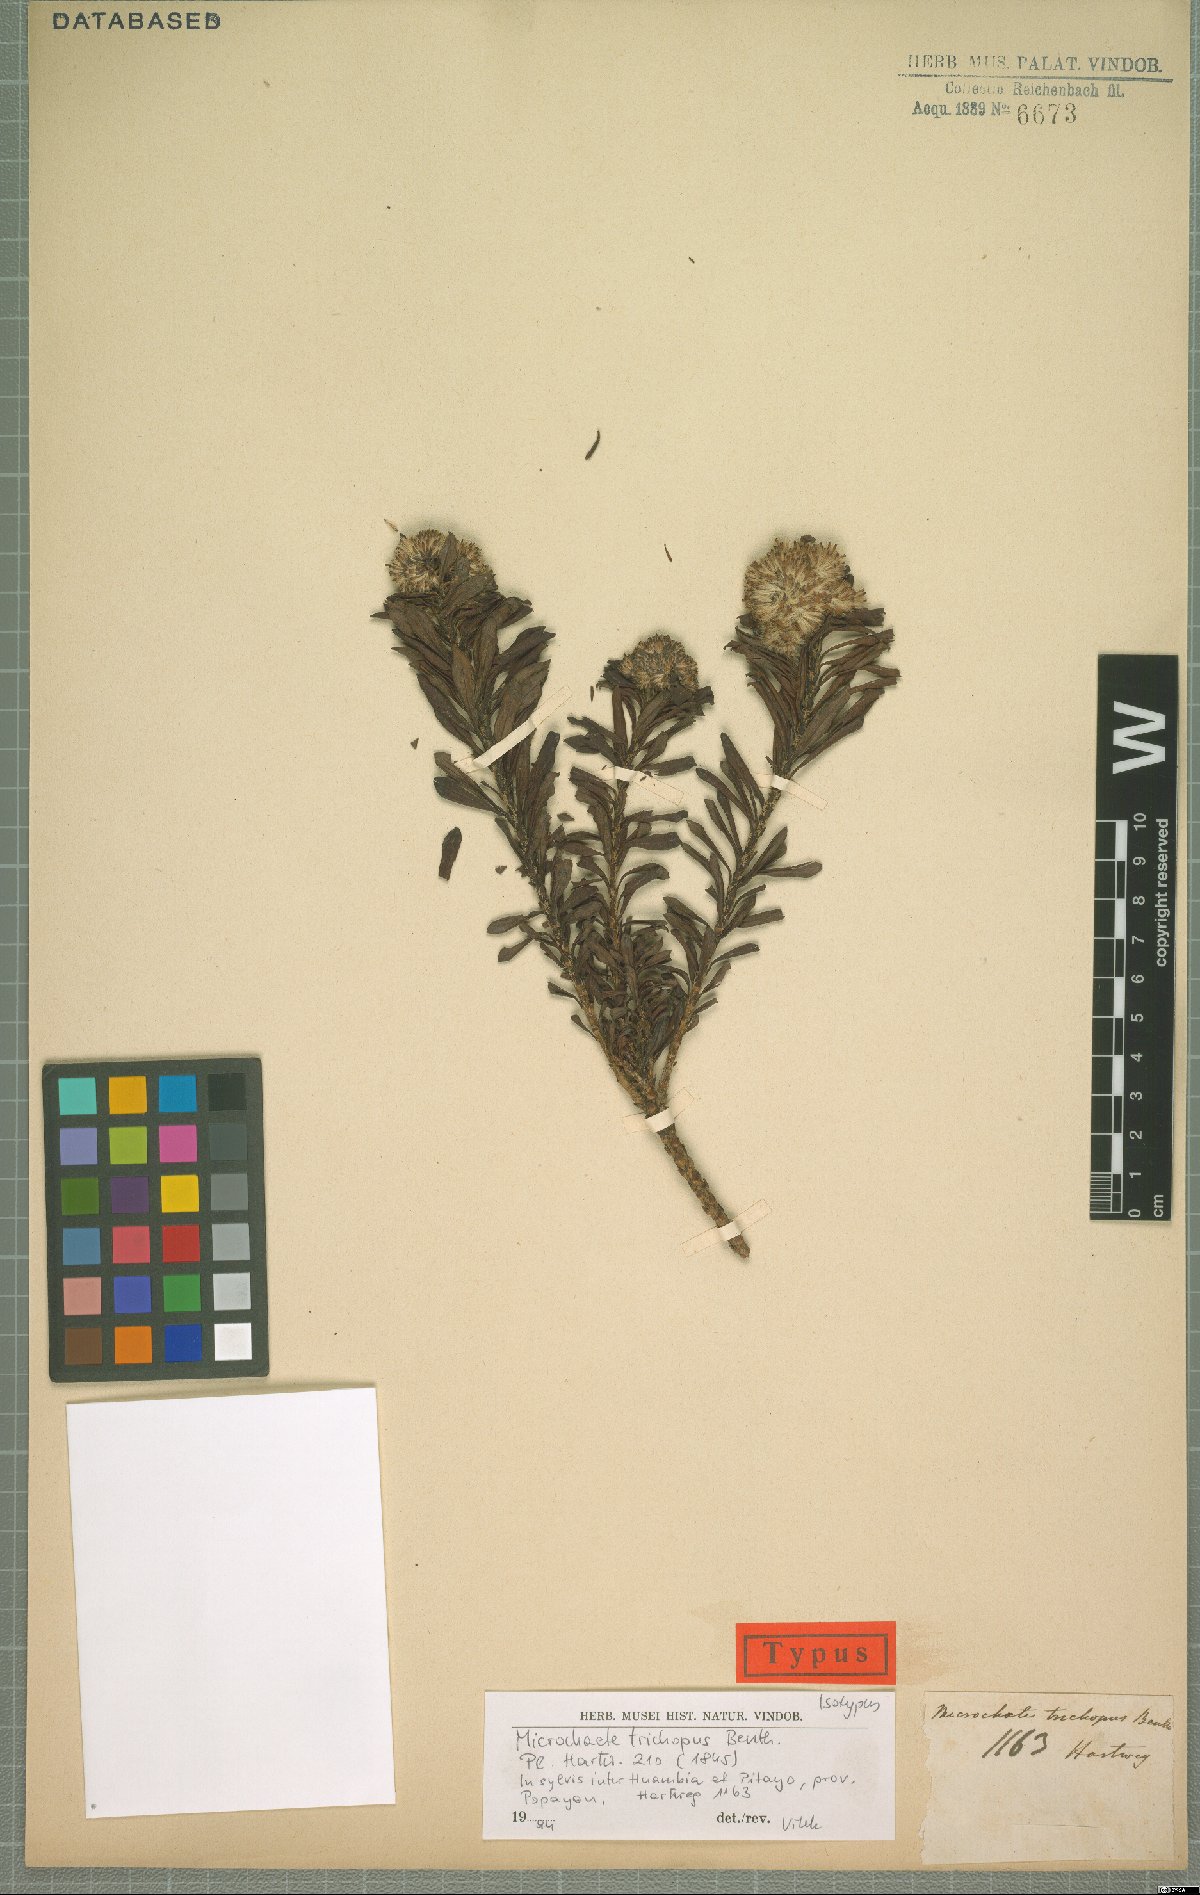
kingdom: Plantae
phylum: Tracheophyta
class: Magnoliopsida
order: Asterales
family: Asteraceae
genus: Monticalia
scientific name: Monticalia trichopus
